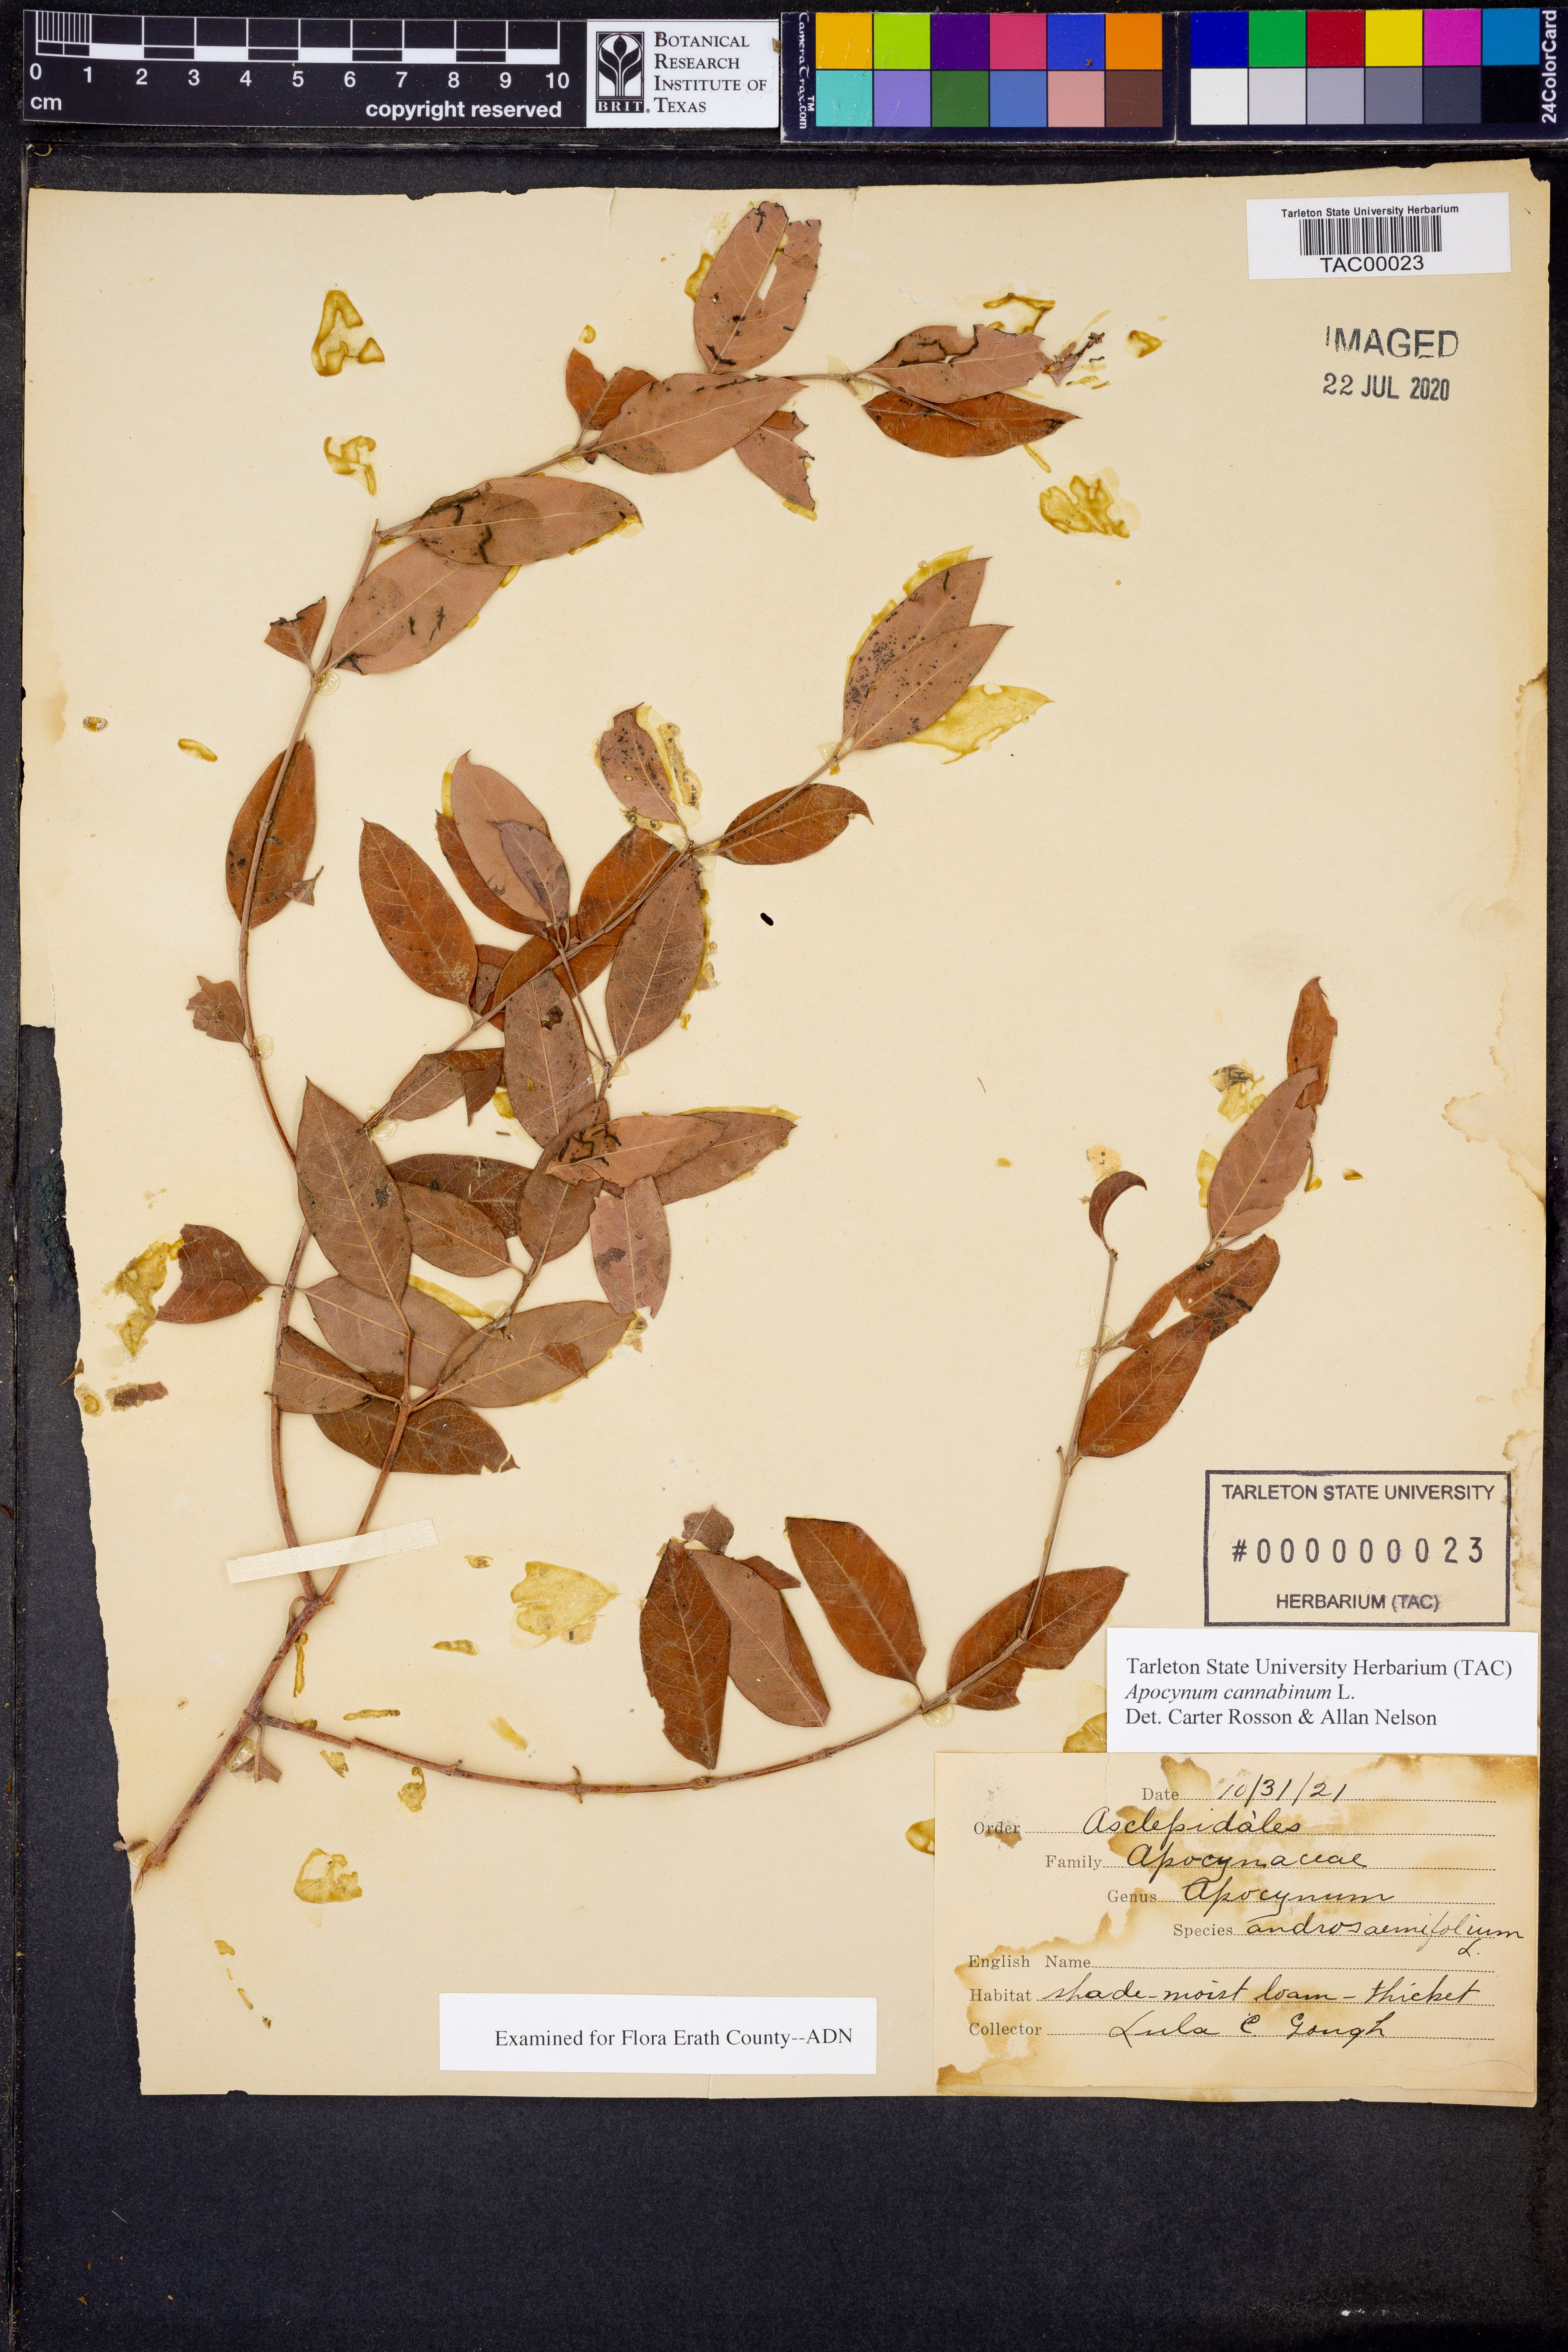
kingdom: Plantae
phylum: Tracheophyta
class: Magnoliopsida
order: Gentianales
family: Apocynaceae
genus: Apocynum
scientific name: Apocynum cannabinum
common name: Hemp dogbane
